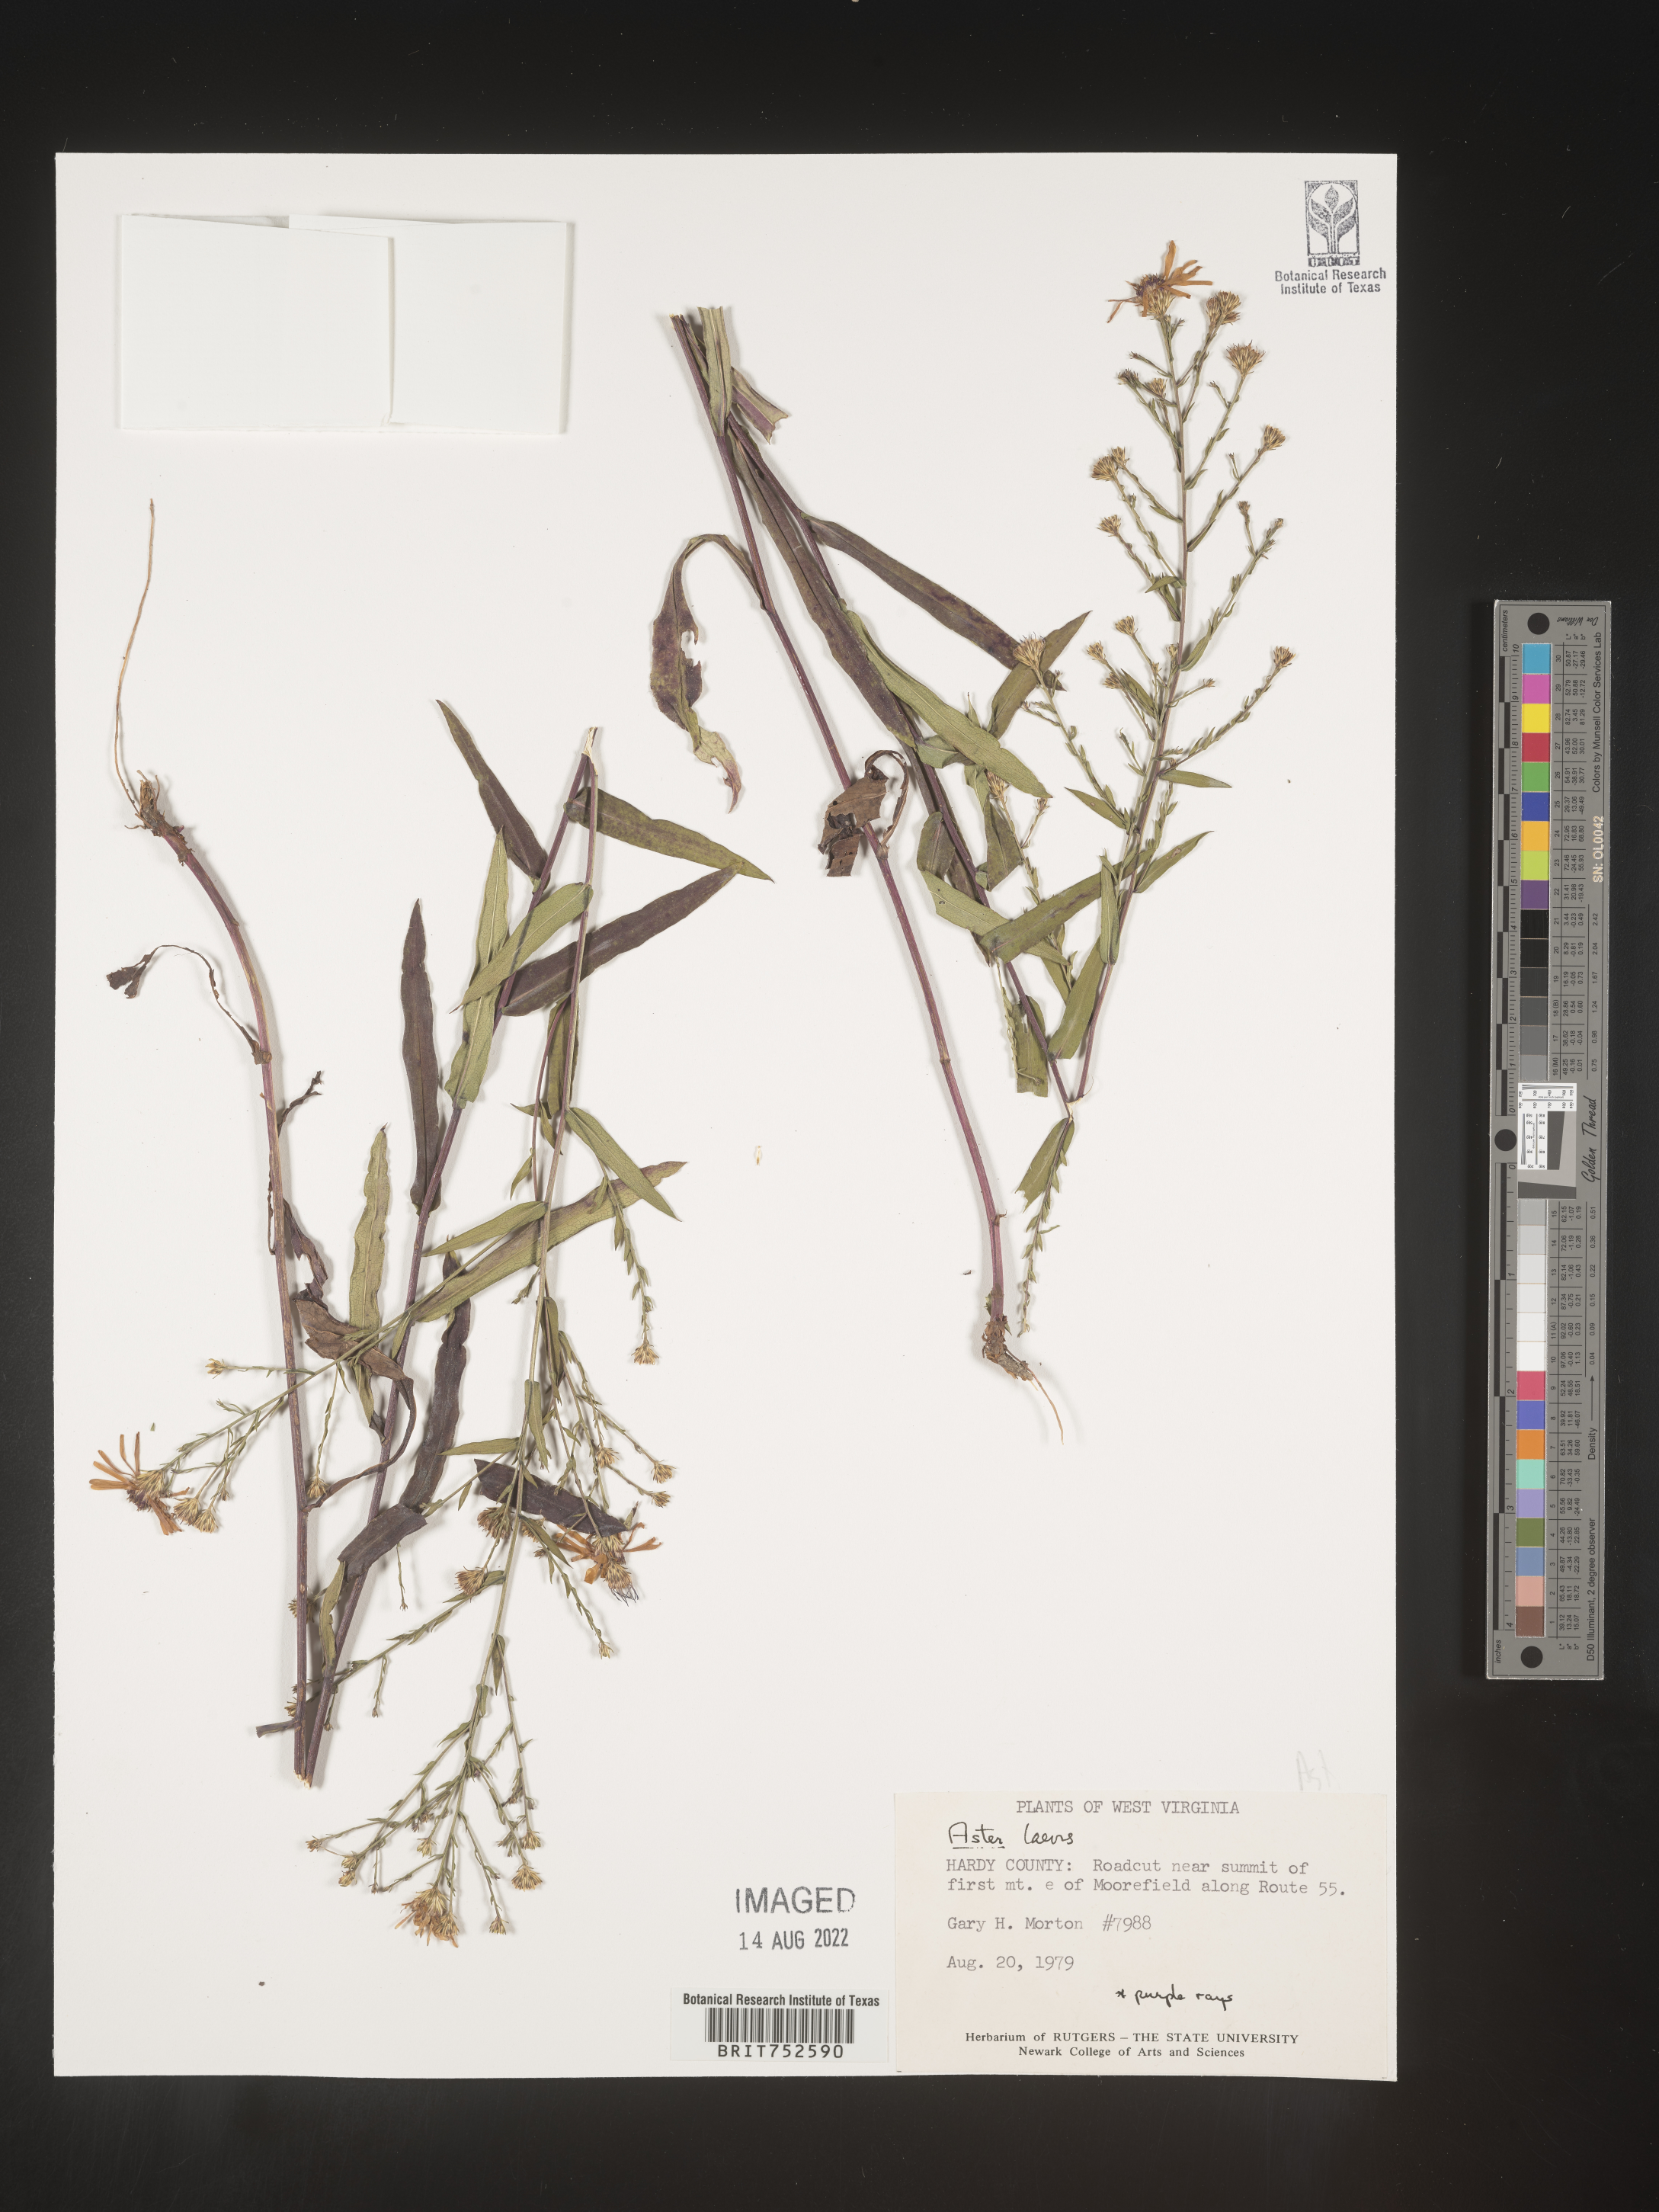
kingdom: Plantae
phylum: Tracheophyta
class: Magnoliopsida
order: Asterales
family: Asteraceae
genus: Symphyotrichum
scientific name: Symphyotrichum laeve
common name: Glaucous aster
